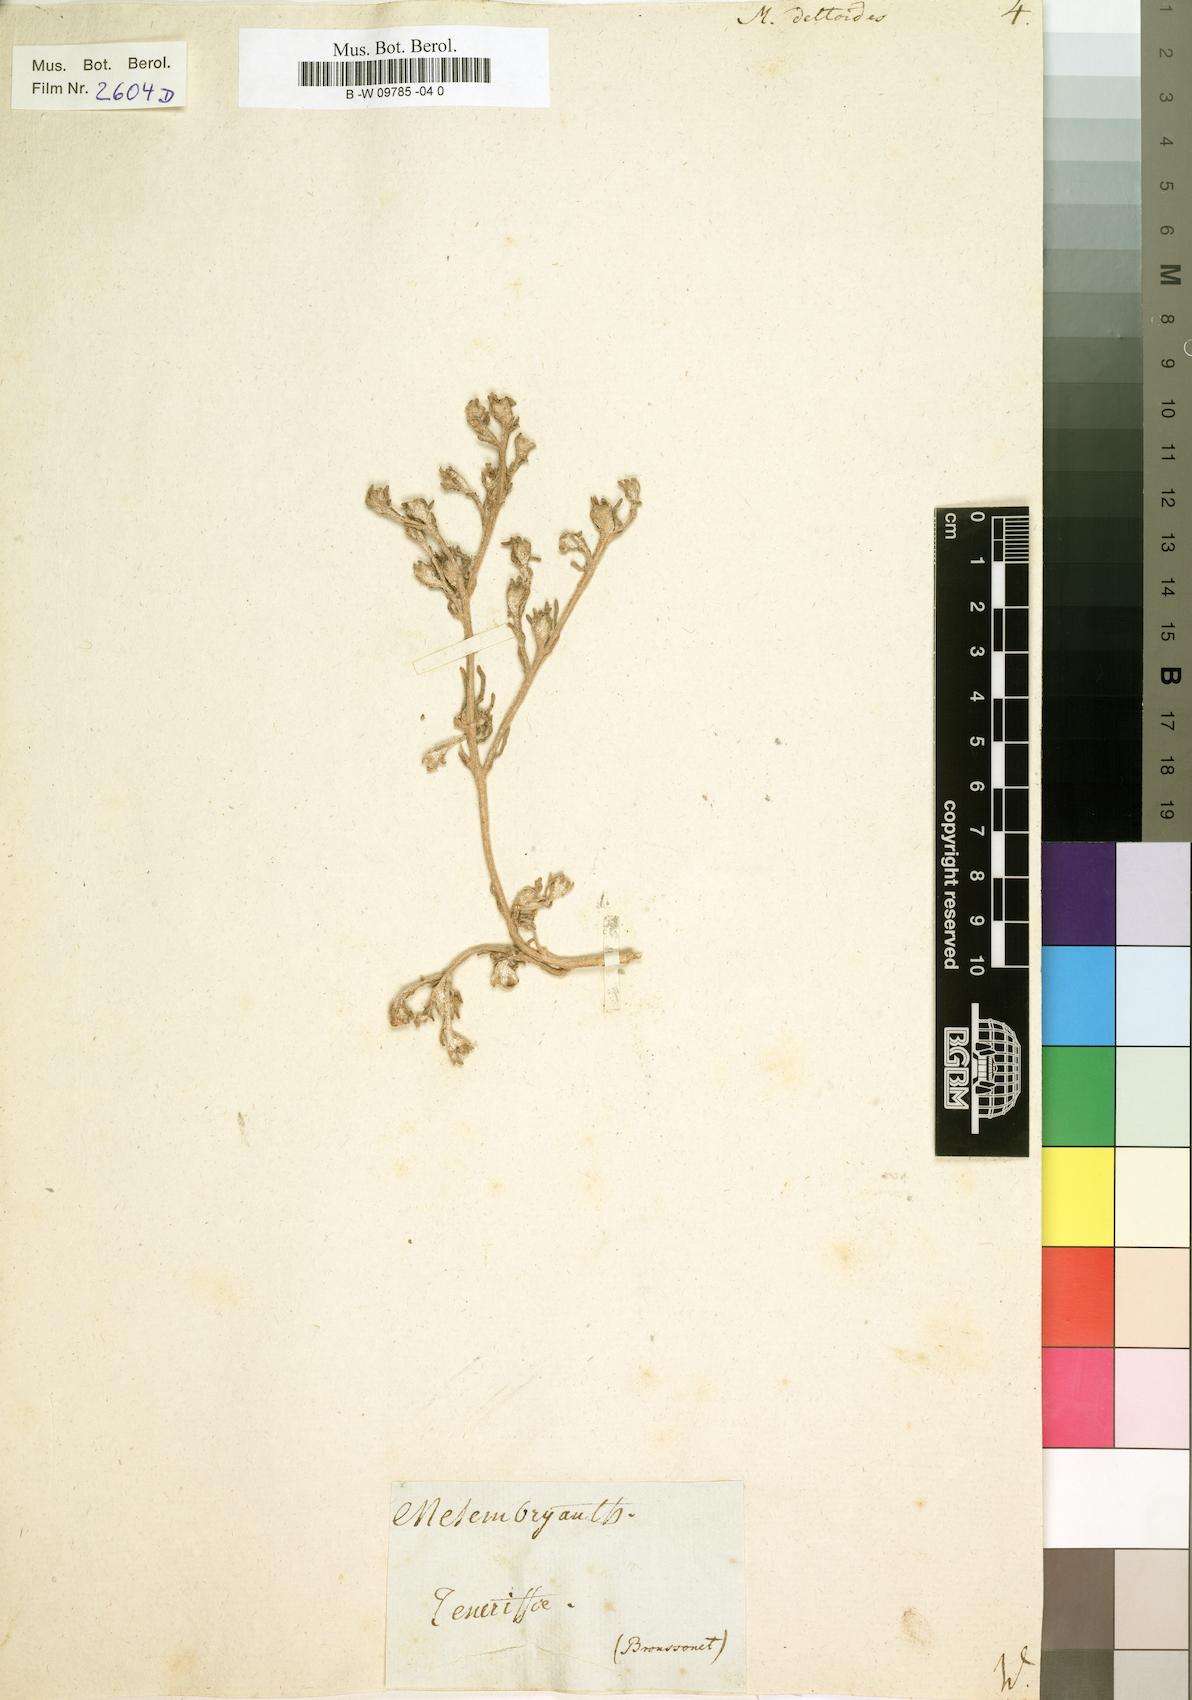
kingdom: Plantae
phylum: Tracheophyta
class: Magnoliopsida
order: Caryophyllales
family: Aizoaceae
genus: Oscularia
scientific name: Oscularia deltoides
